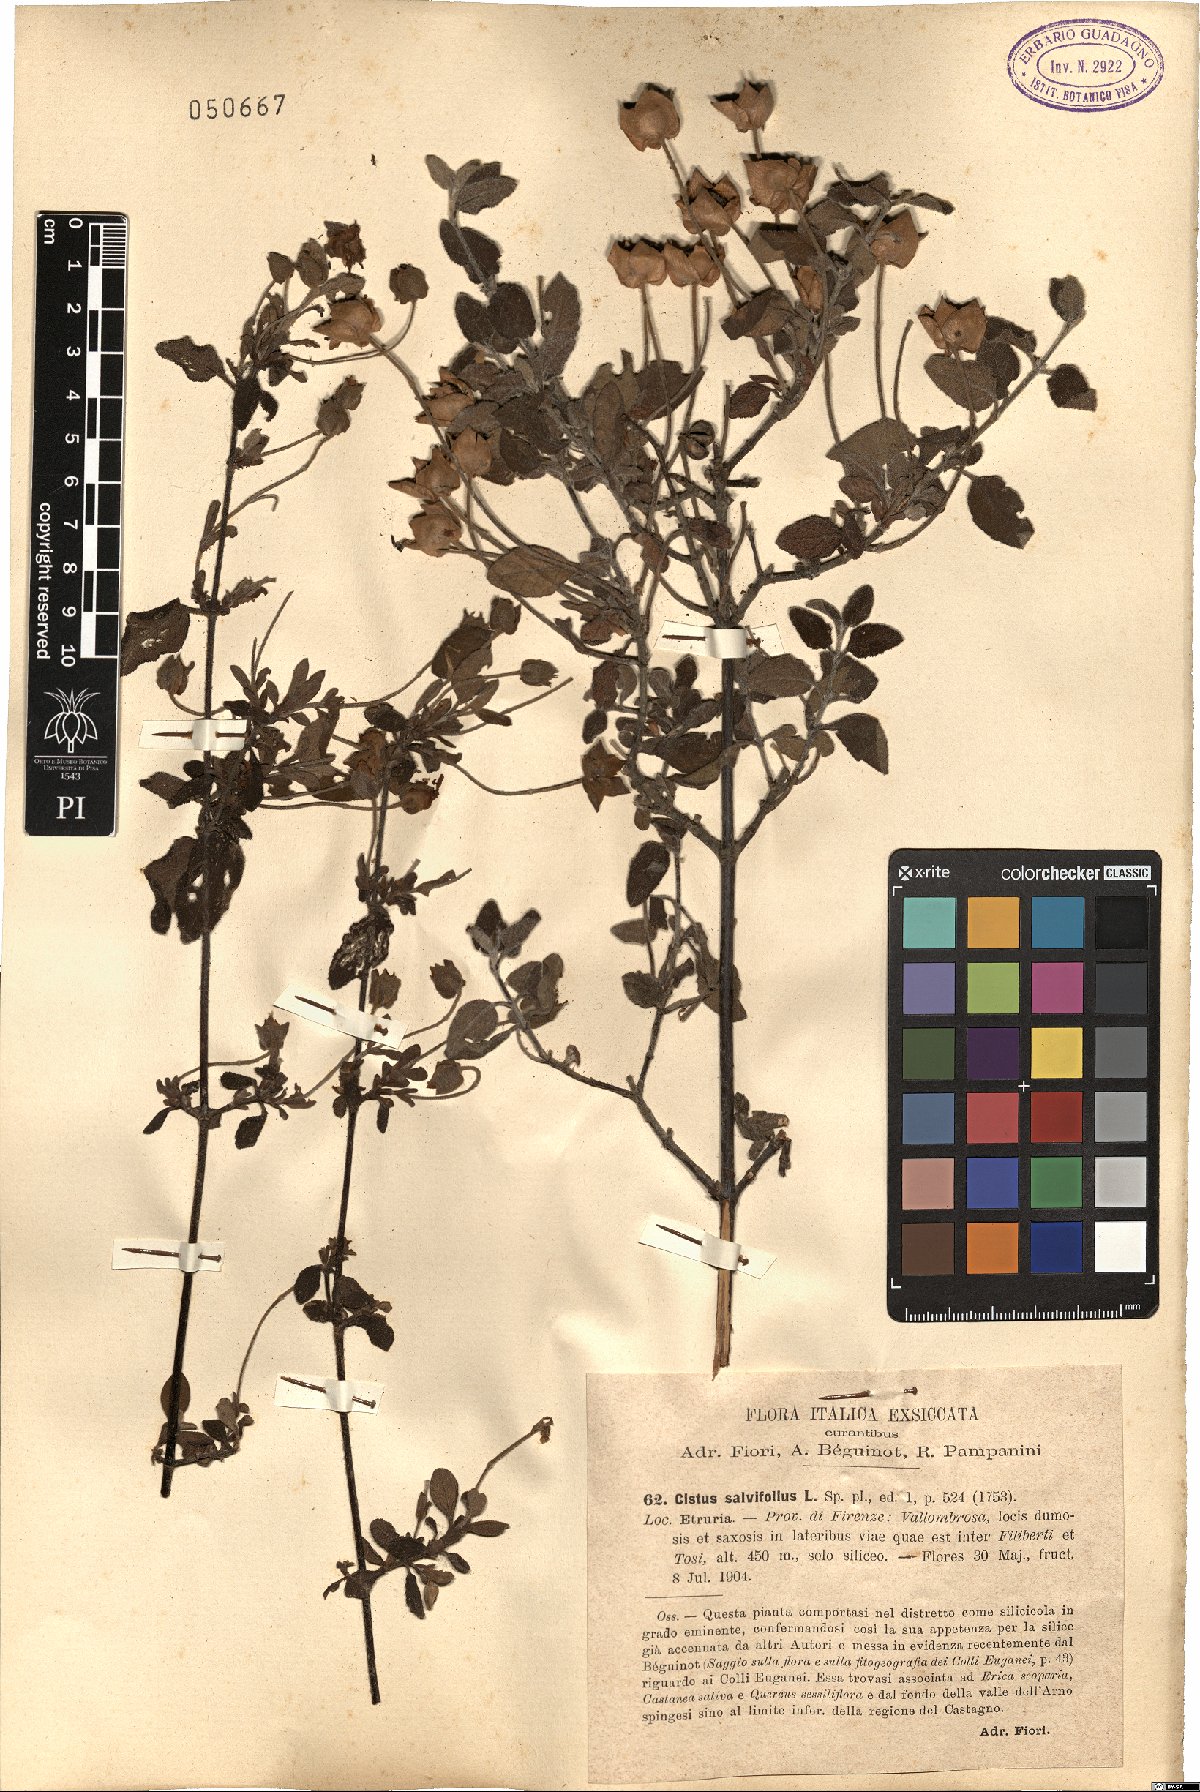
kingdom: Plantae
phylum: Tracheophyta
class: Magnoliopsida
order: Malvales
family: Cistaceae
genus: Cistus
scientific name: Cistus salviifolius
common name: Salvia cistus
